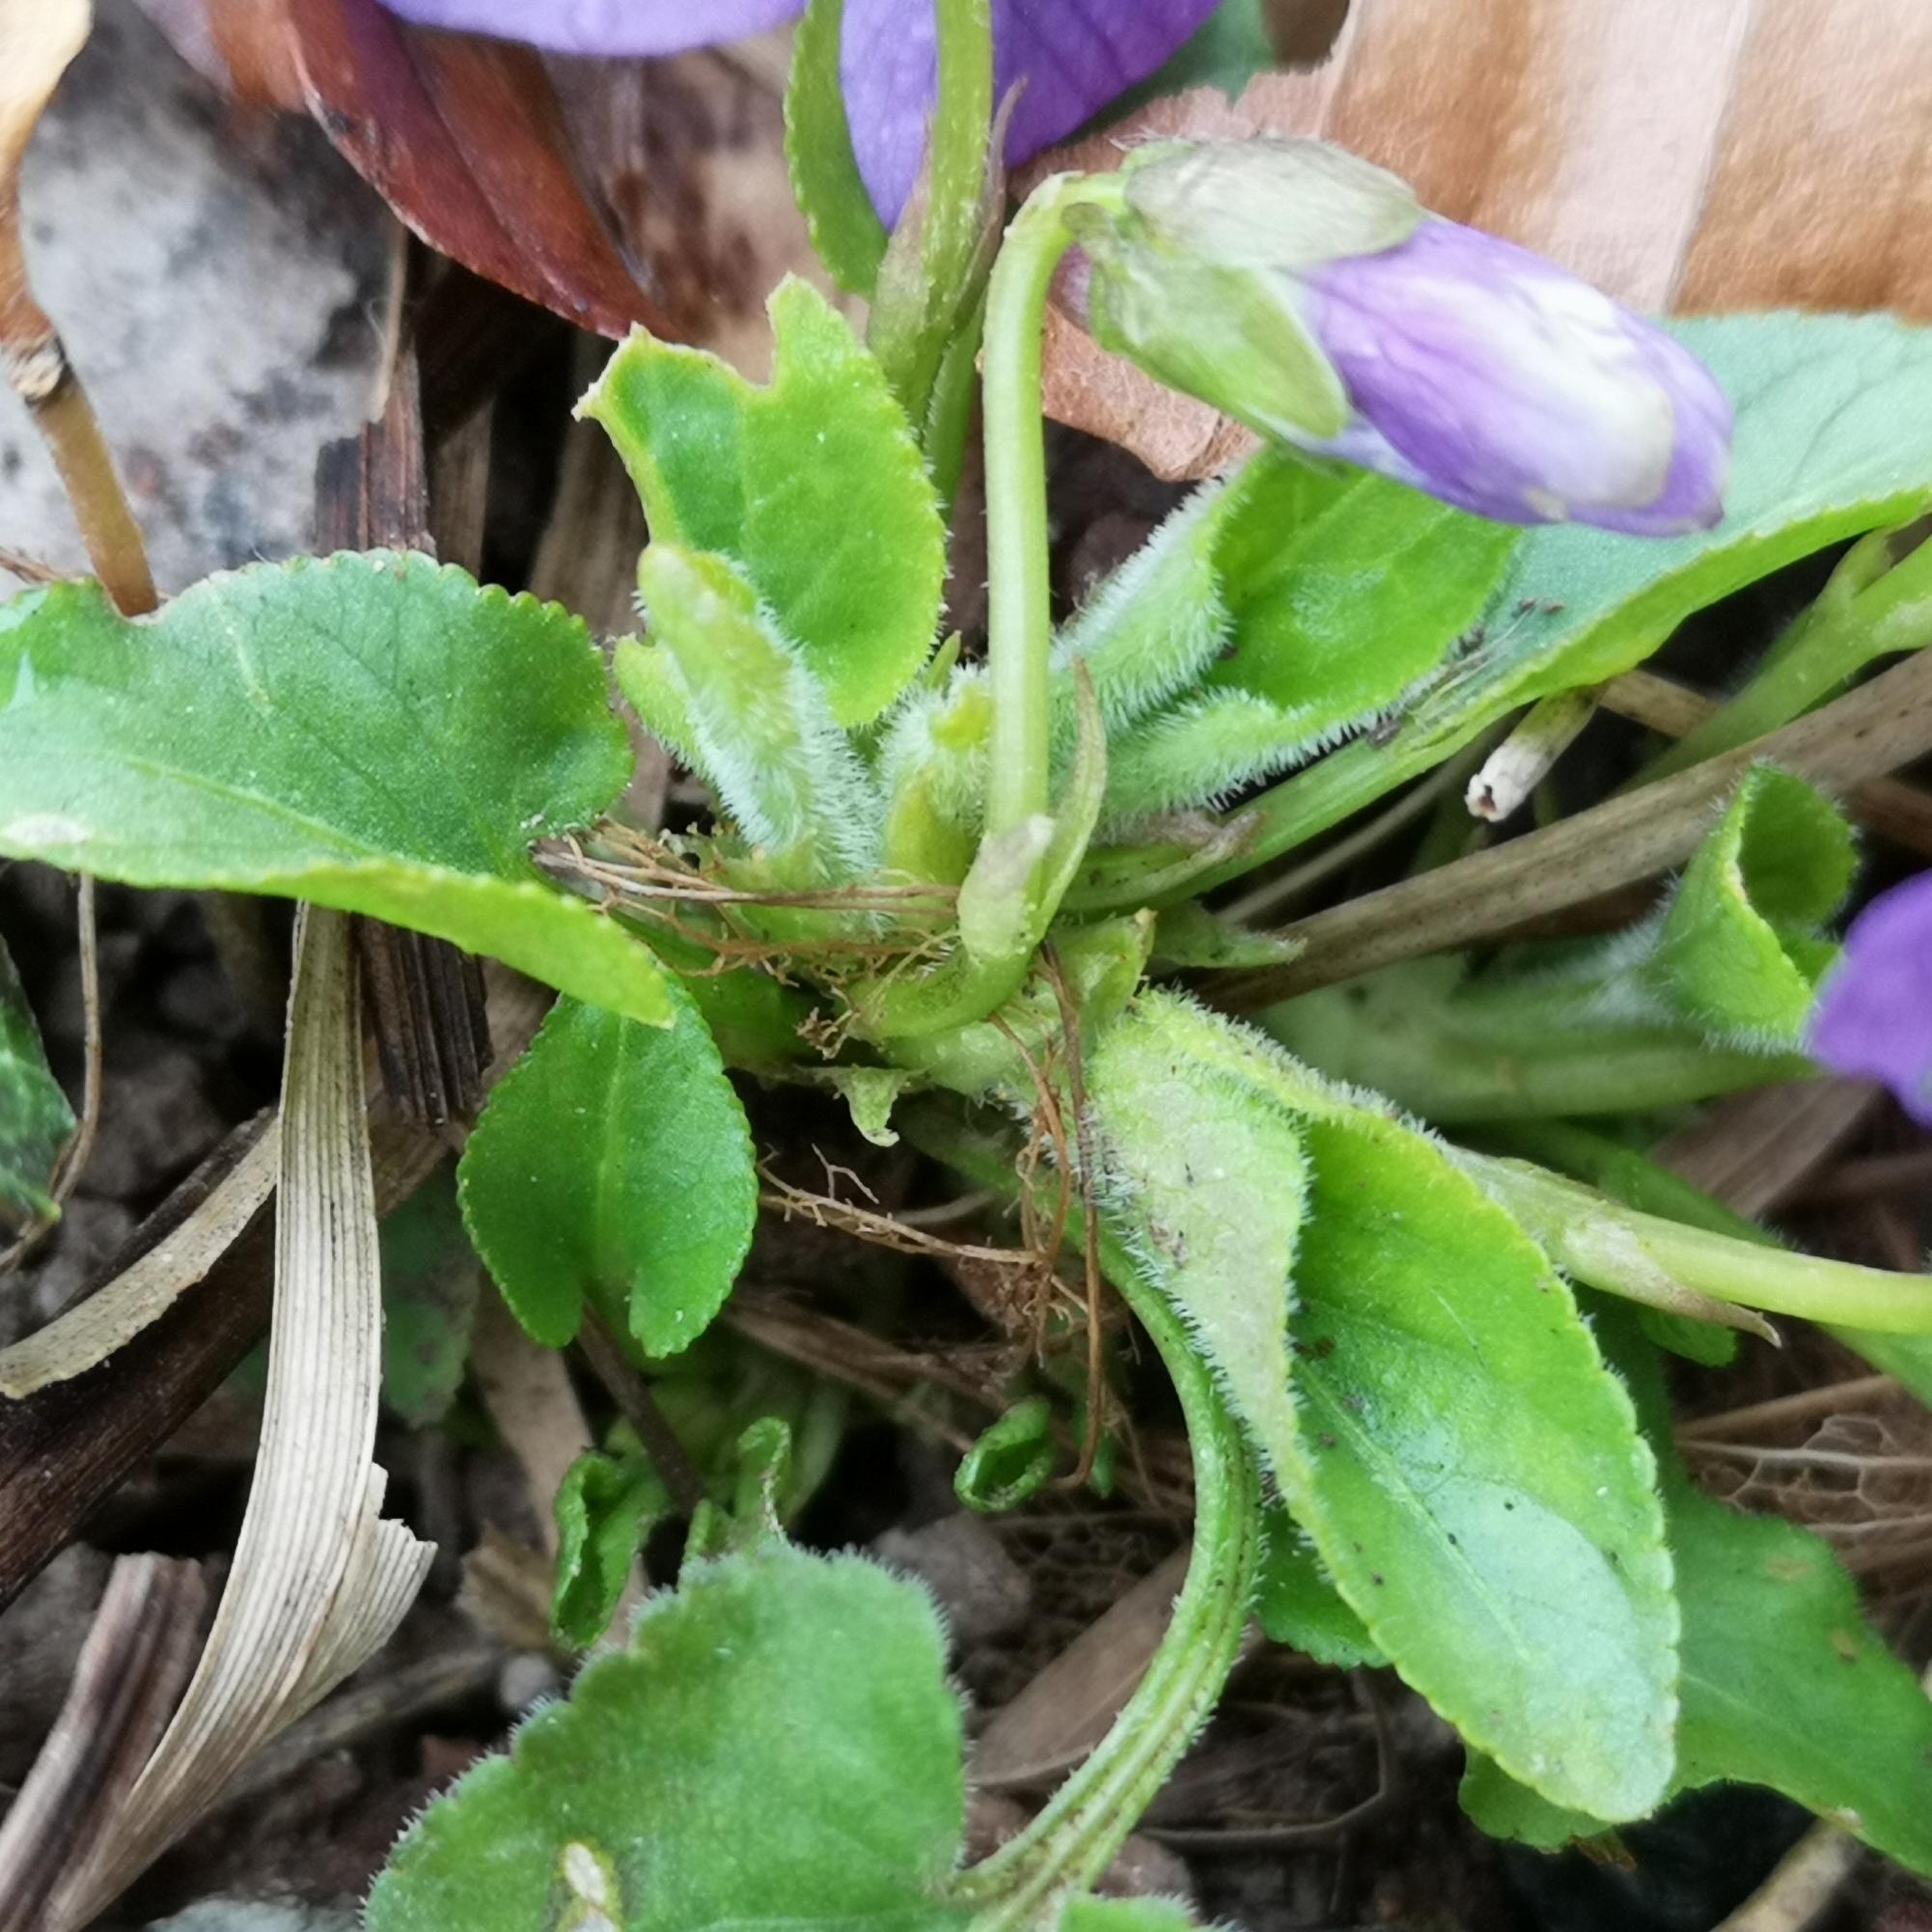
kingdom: Plantae
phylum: Tracheophyta
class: Magnoliopsida
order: Malpighiales
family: Violaceae
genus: Viola
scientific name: Viola hirta
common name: Håret viol
